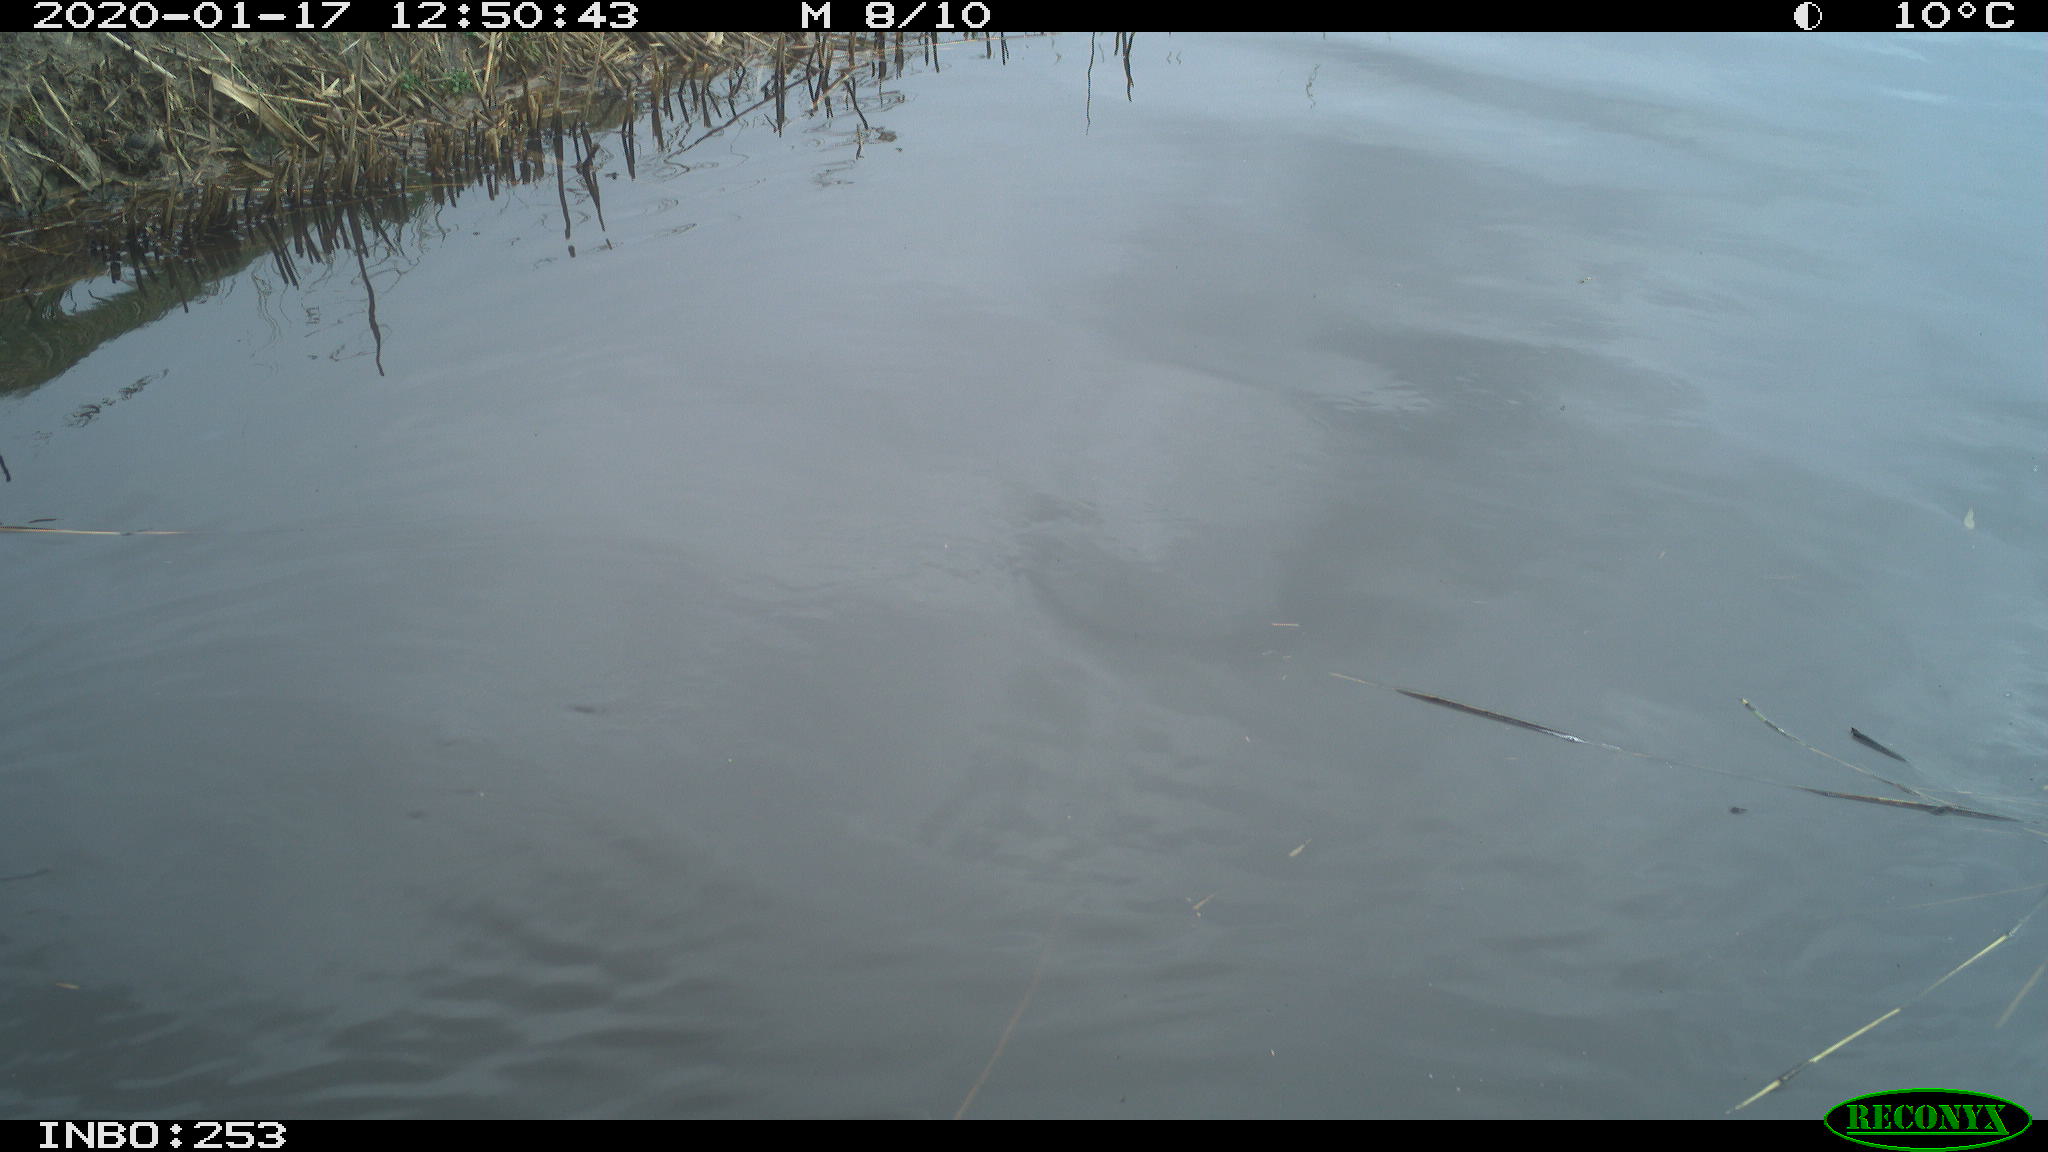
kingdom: Animalia
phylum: Chordata
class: Aves
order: Gruiformes
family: Rallidae
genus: Fulica
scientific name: Fulica atra
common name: Eurasian coot
